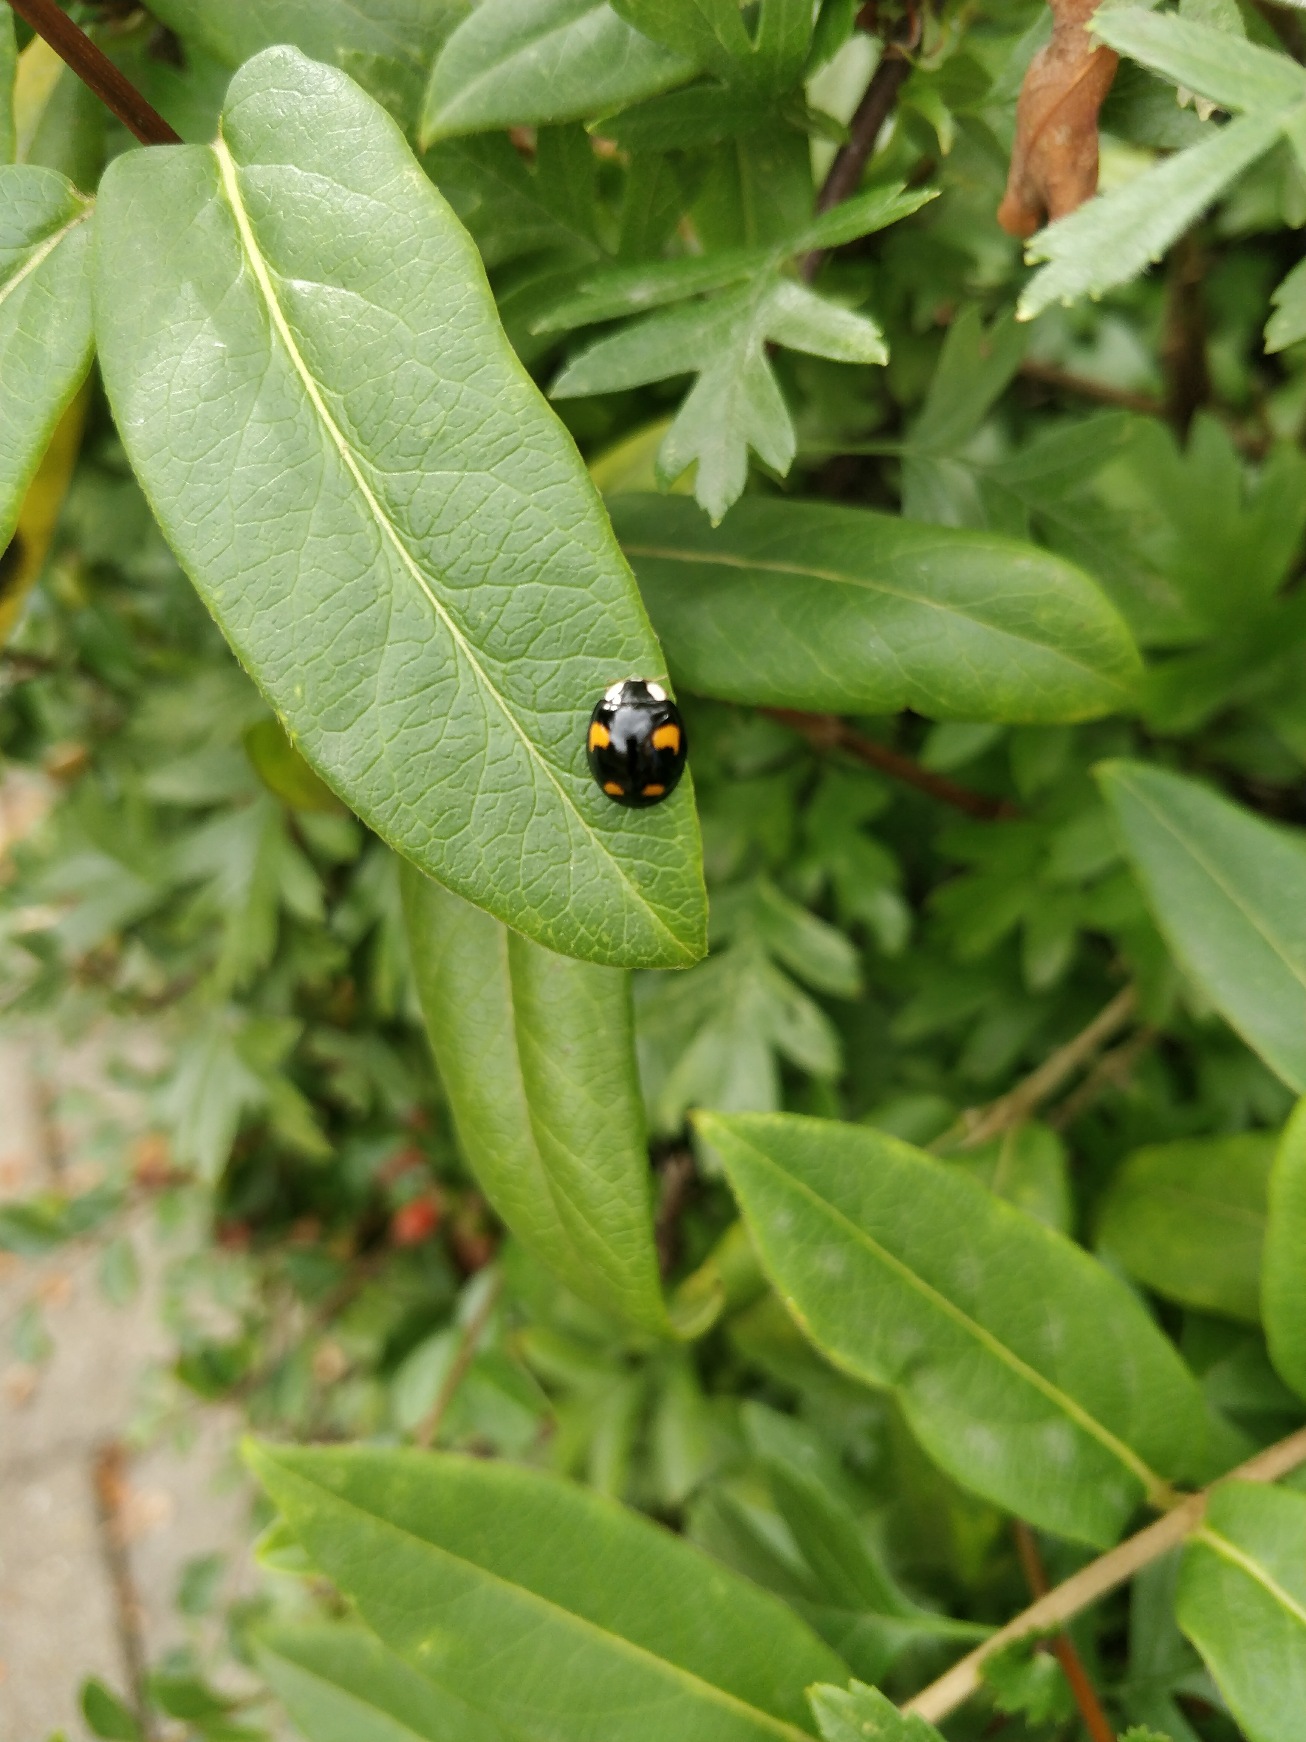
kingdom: Animalia
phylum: Arthropoda
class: Insecta
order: Coleoptera
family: Coccinellidae
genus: Harmonia
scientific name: Harmonia axyridis
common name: Harlekinmariehøne
